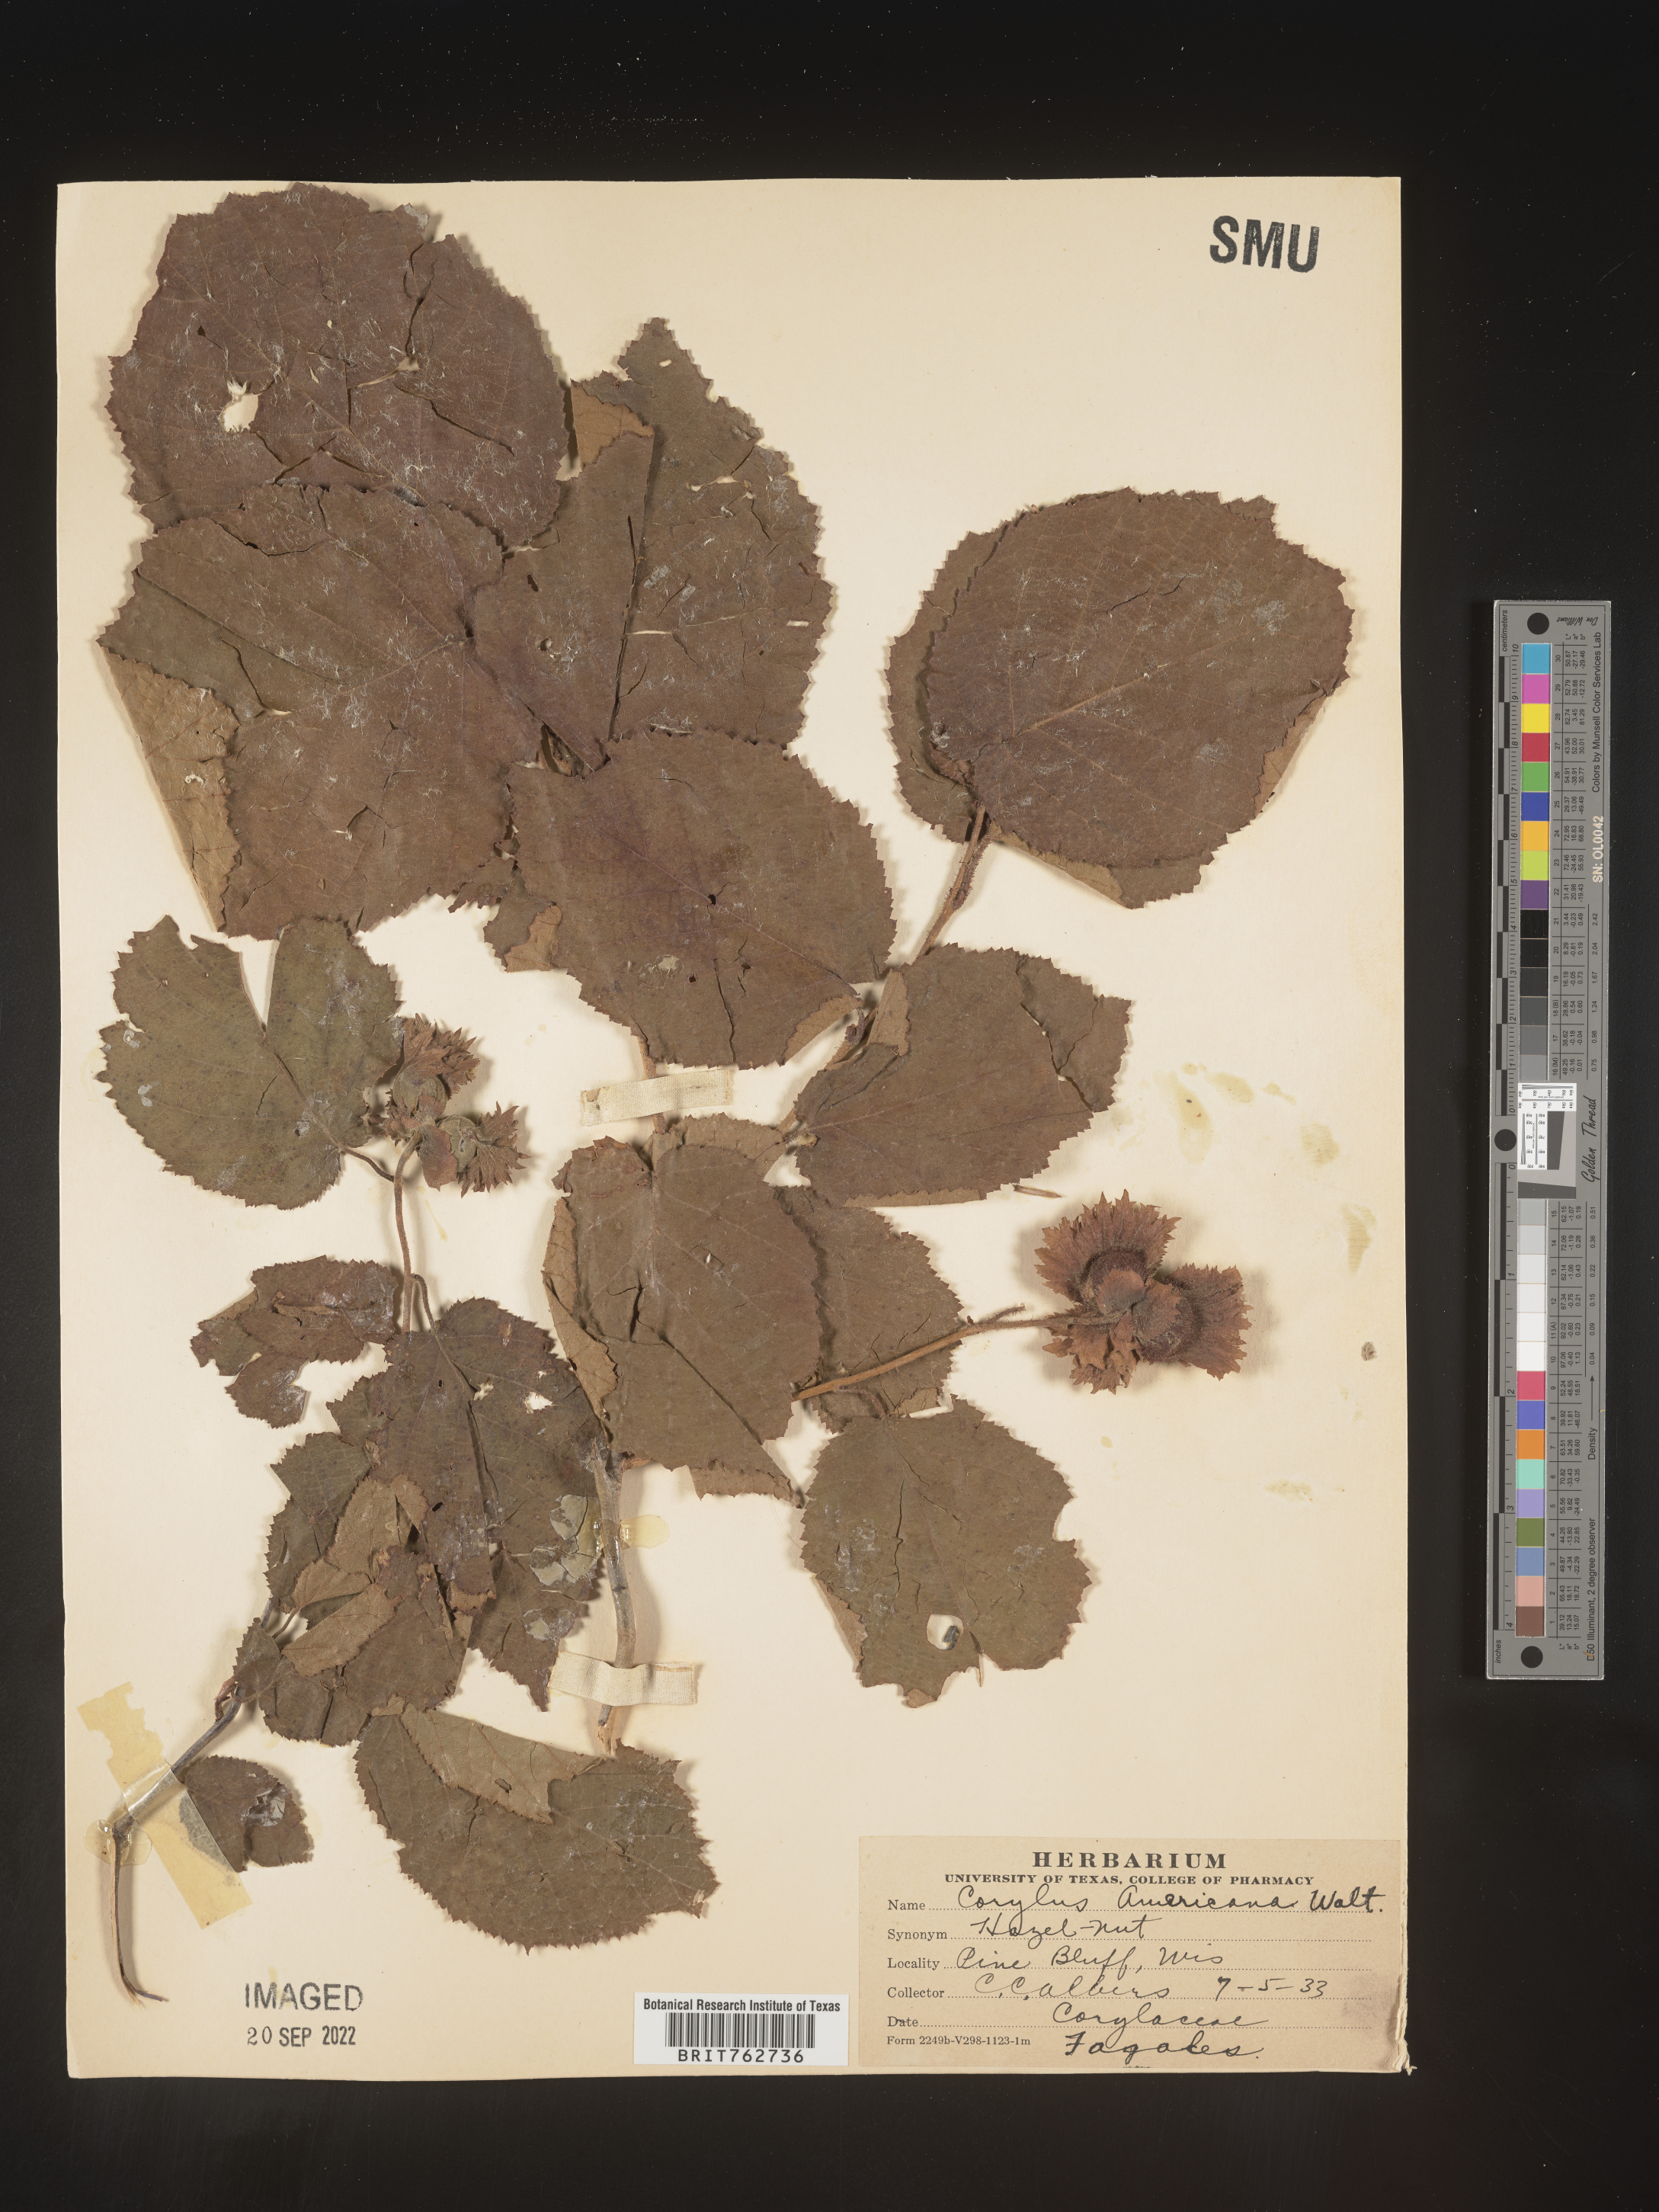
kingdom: Plantae
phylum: Tracheophyta
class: Magnoliopsida
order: Fagales
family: Betulaceae
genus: Corylus
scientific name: Corylus americana
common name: American hazel
